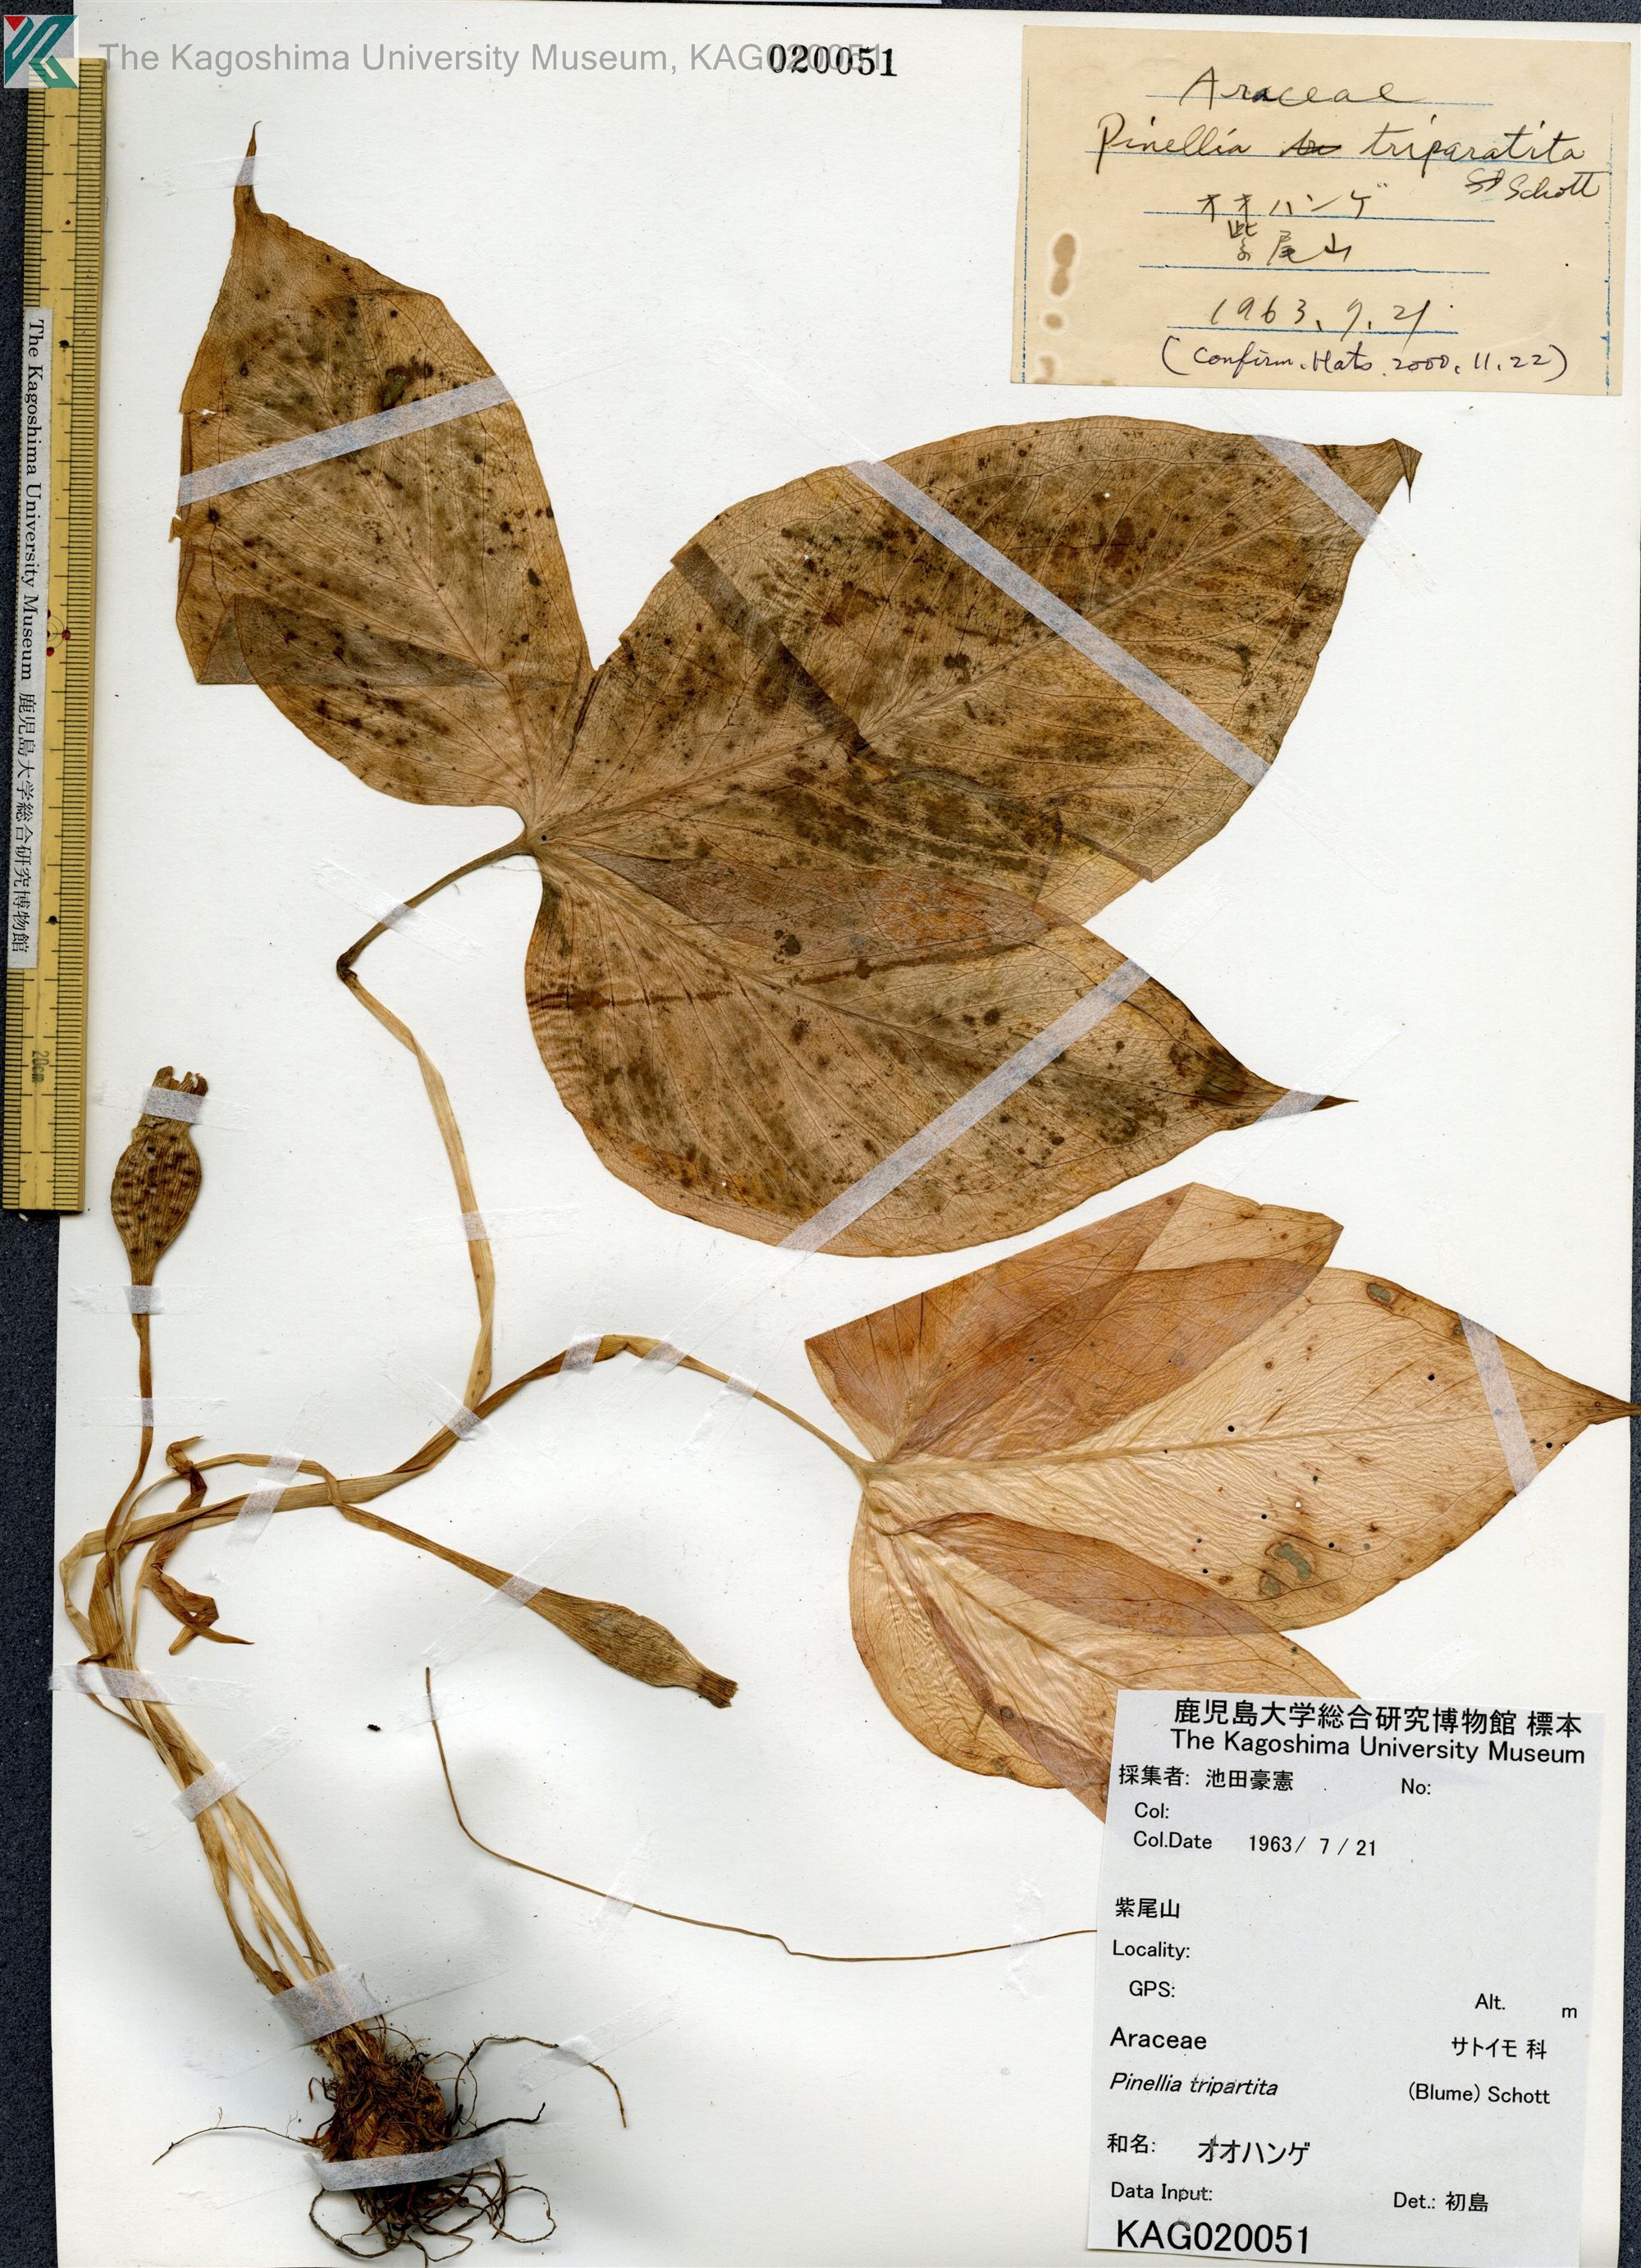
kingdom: Plantae
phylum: Tracheophyta
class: Liliopsida
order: Alismatales
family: Araceae
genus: Pinellia
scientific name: Pinellia tripartita
